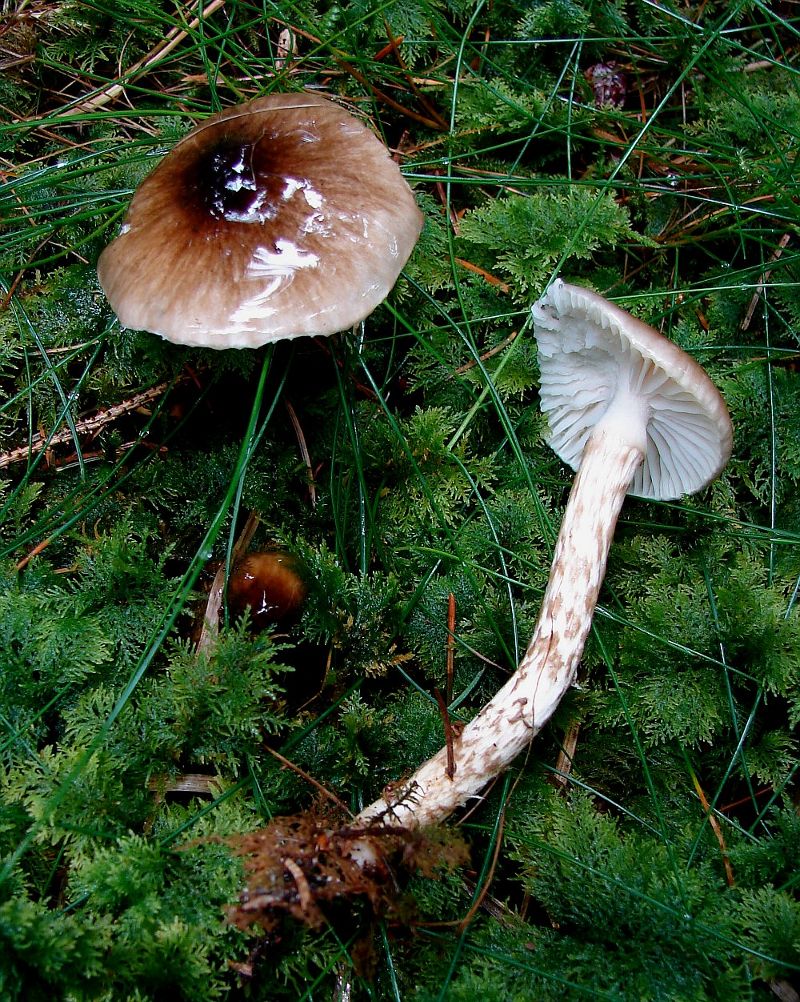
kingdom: Fungi
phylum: Basidiomycota
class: Agaricomycetes
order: Agaricales
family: Hygrophoraceae
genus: Hygrophorus
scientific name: Hygrophorus olivaceoalbus
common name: hvidbrun sneglehat
